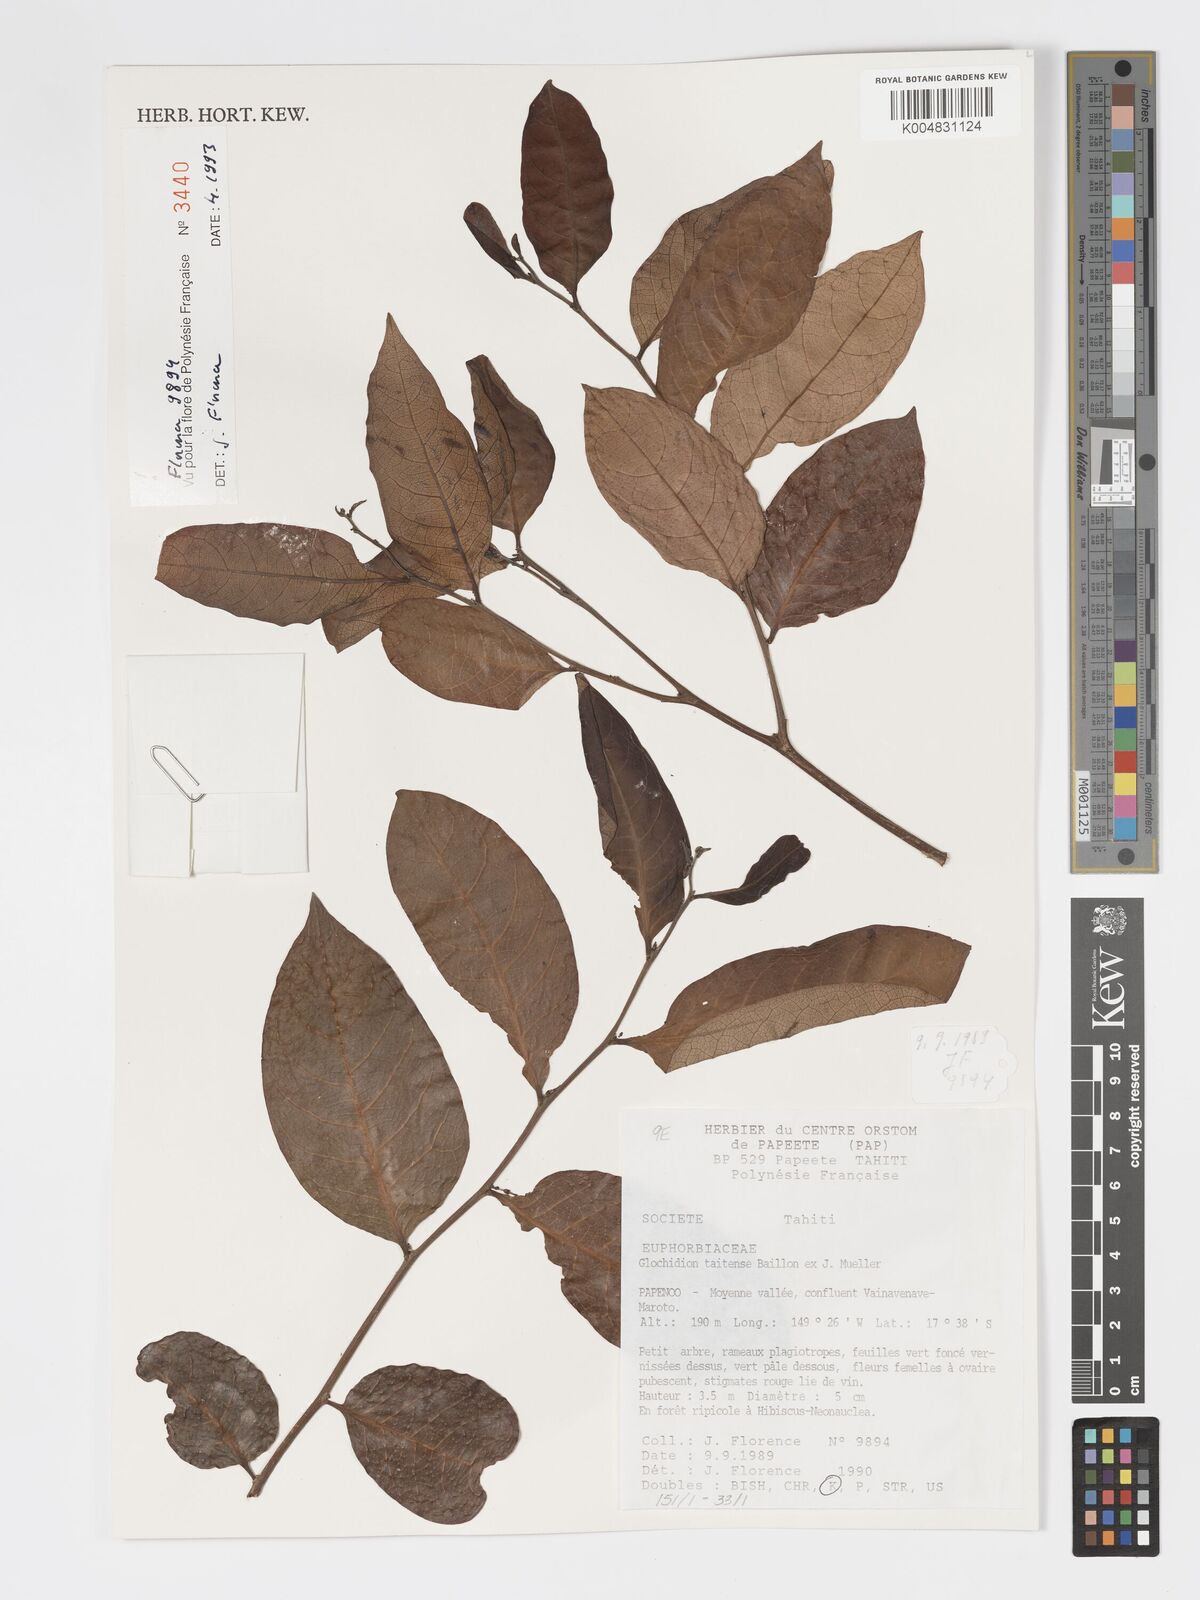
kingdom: Plantae
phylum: Tracheophyta
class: Magnoliopsida
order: Malpighiales
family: Phyllanthaceae
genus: Glochidion
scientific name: Glochidion taitense
